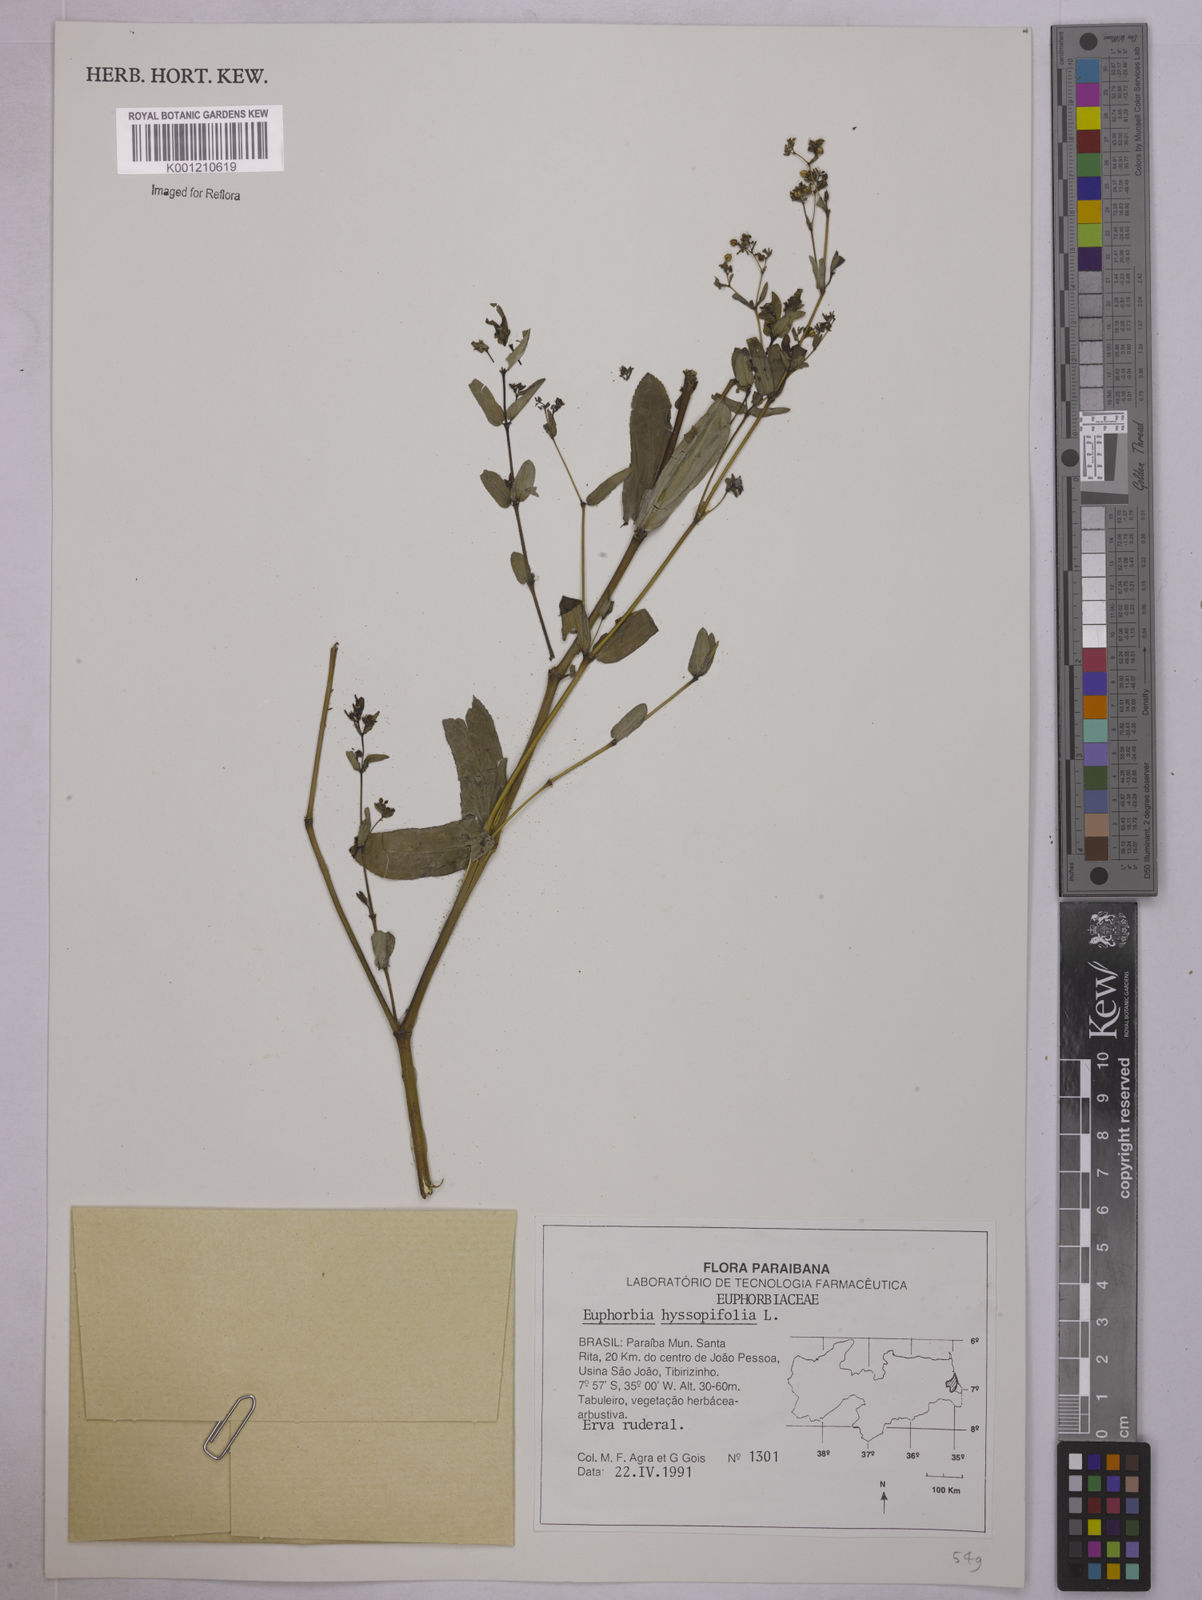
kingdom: Plantae
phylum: Tracheophyta
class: Magnoliopsida
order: Malpighiales
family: Euphorbiaceae
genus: Euphorbia
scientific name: Euphorbia hyssopifolia
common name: Hyssopleaf sandmat
